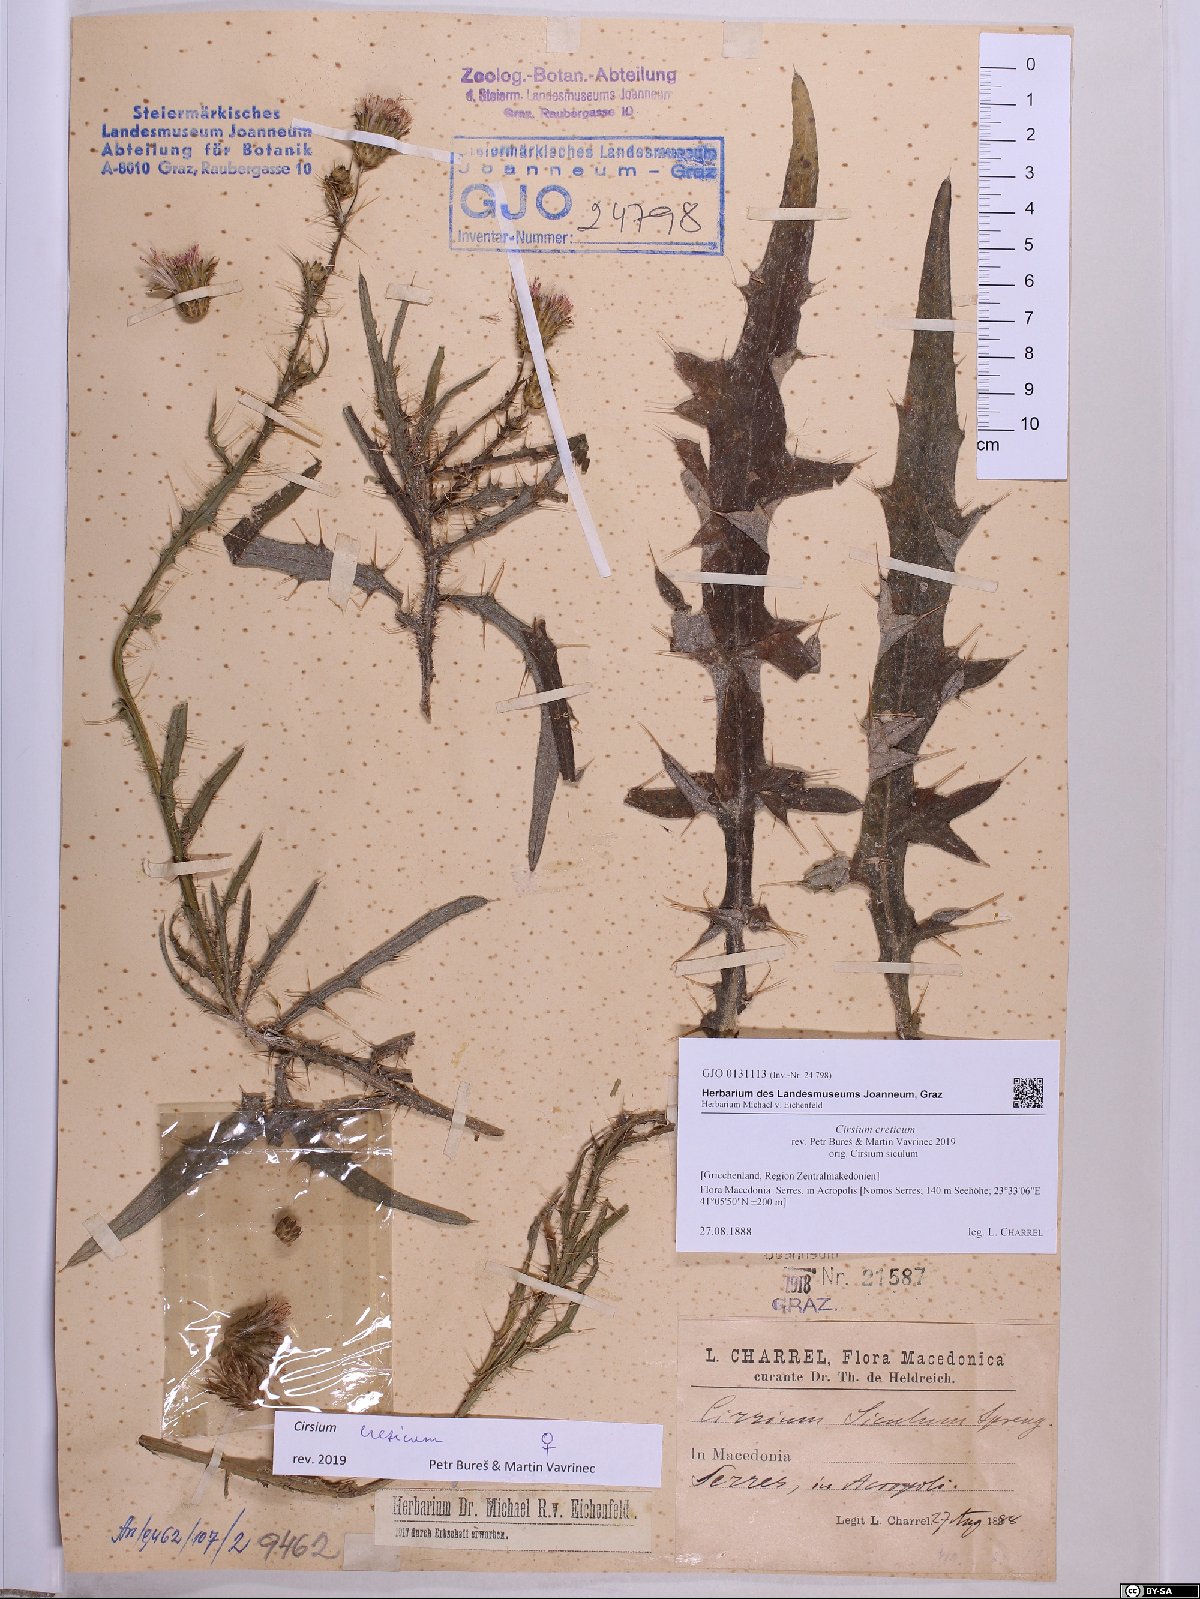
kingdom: Plantae
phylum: Tracheophyta
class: Magnoliopsida
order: Asterales
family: Asteraceae
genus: Cirsium
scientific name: Cirsium creticum
